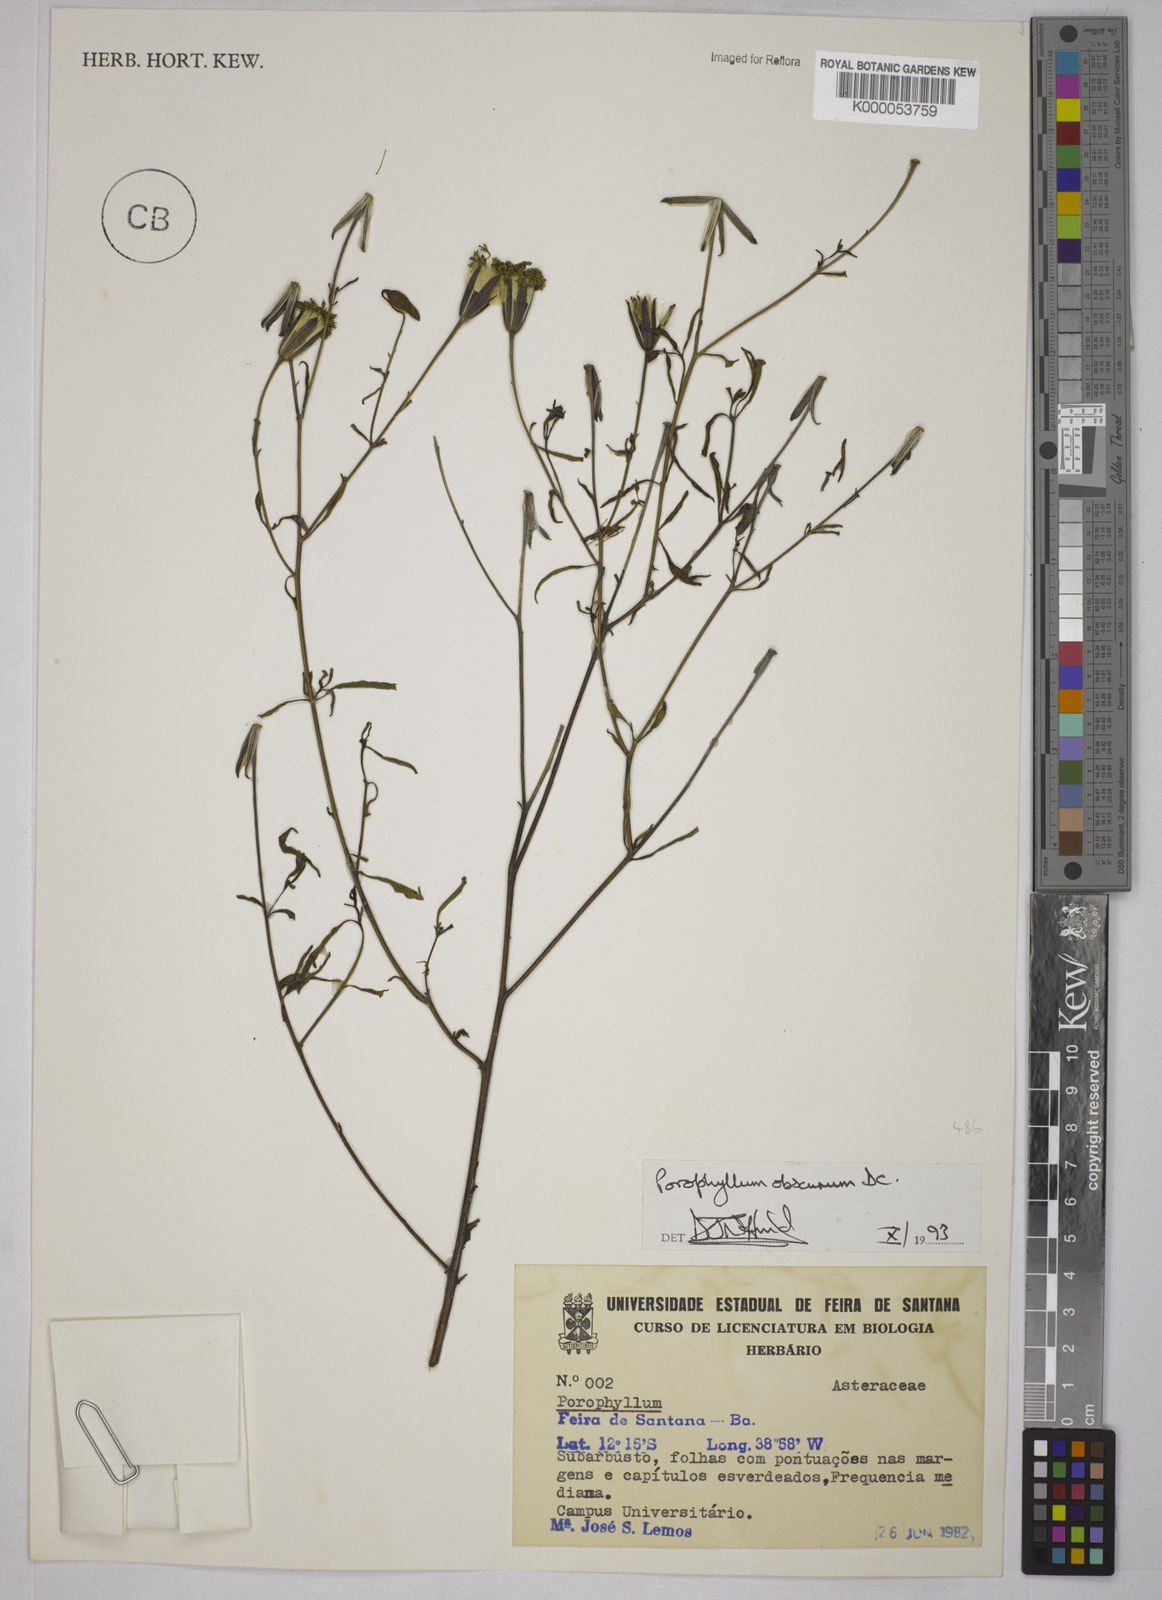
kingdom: Plantae
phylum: Tracheophyta
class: Magnoliopsida
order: Asterales
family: Asteraceae
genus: Porophyllum
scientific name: Porophyllum obscurum
